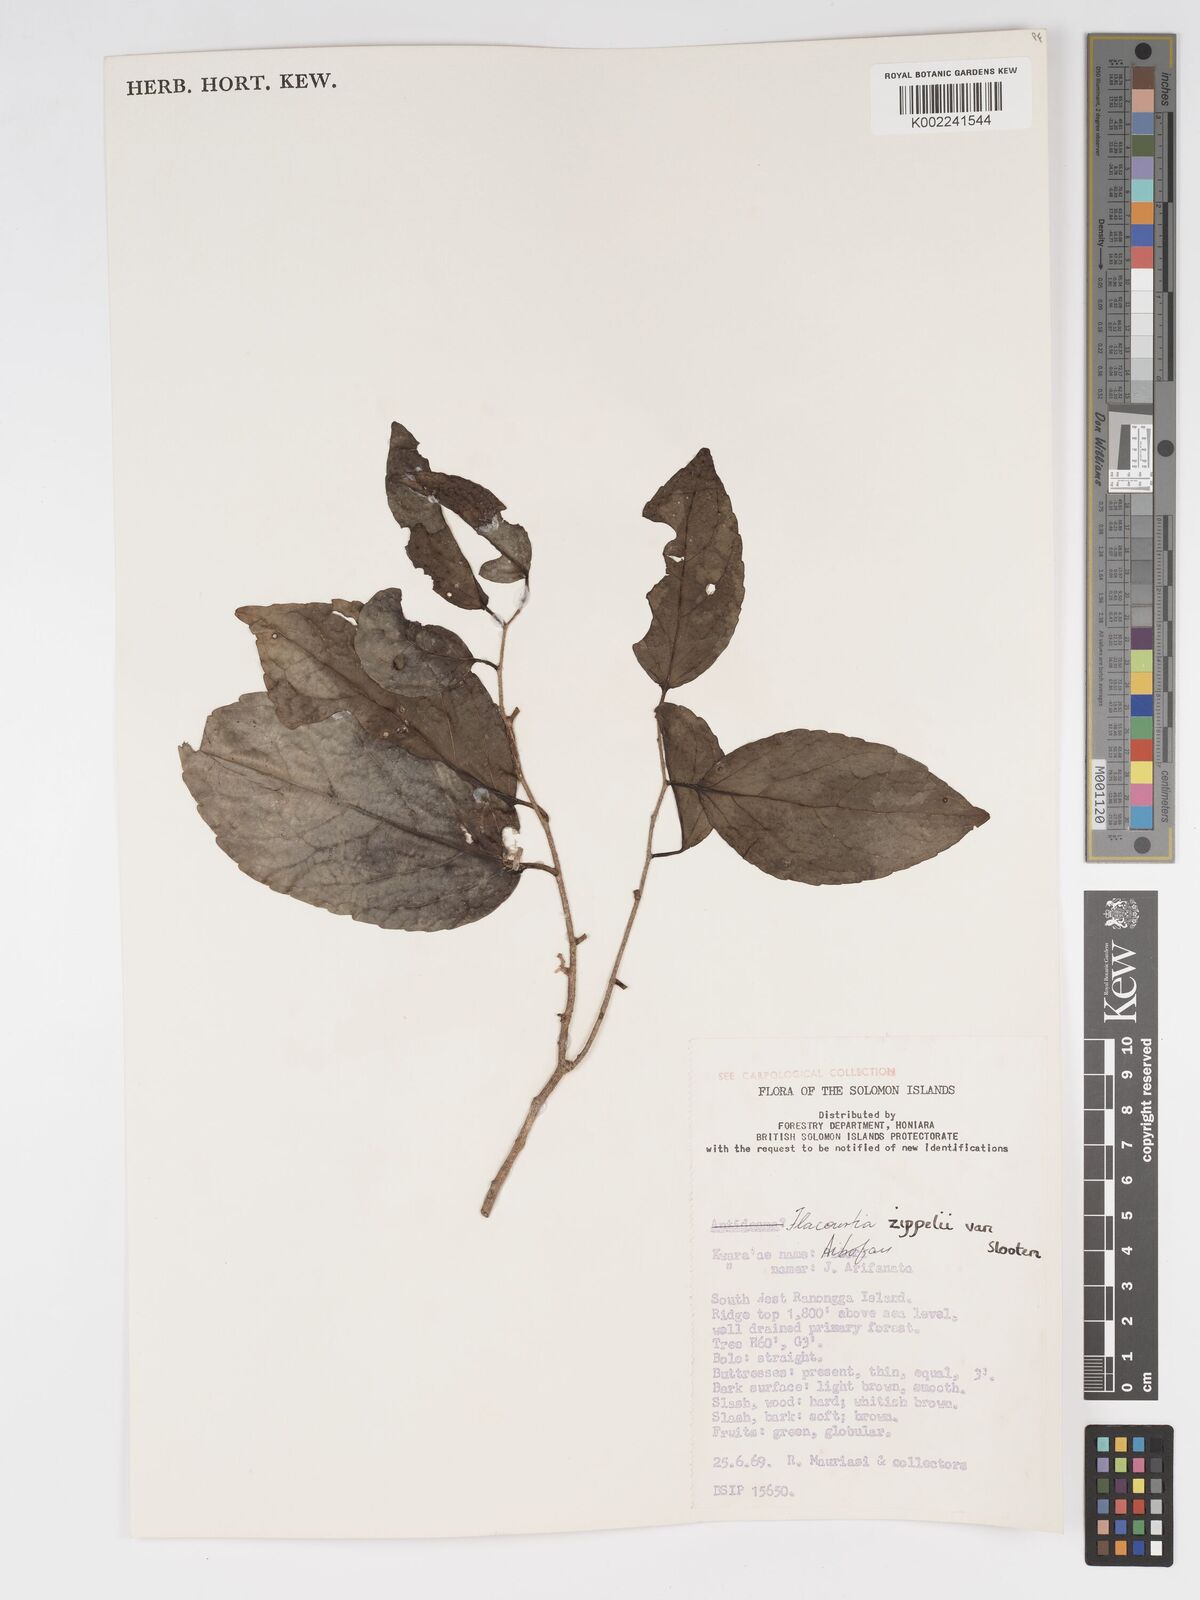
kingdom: Plantae
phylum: Tracheophyta
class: Magnoliopsida
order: Malpighiales
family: Salicaceae
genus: Flacourtia
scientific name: Flacourtia zippelii
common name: Zippeli plum
